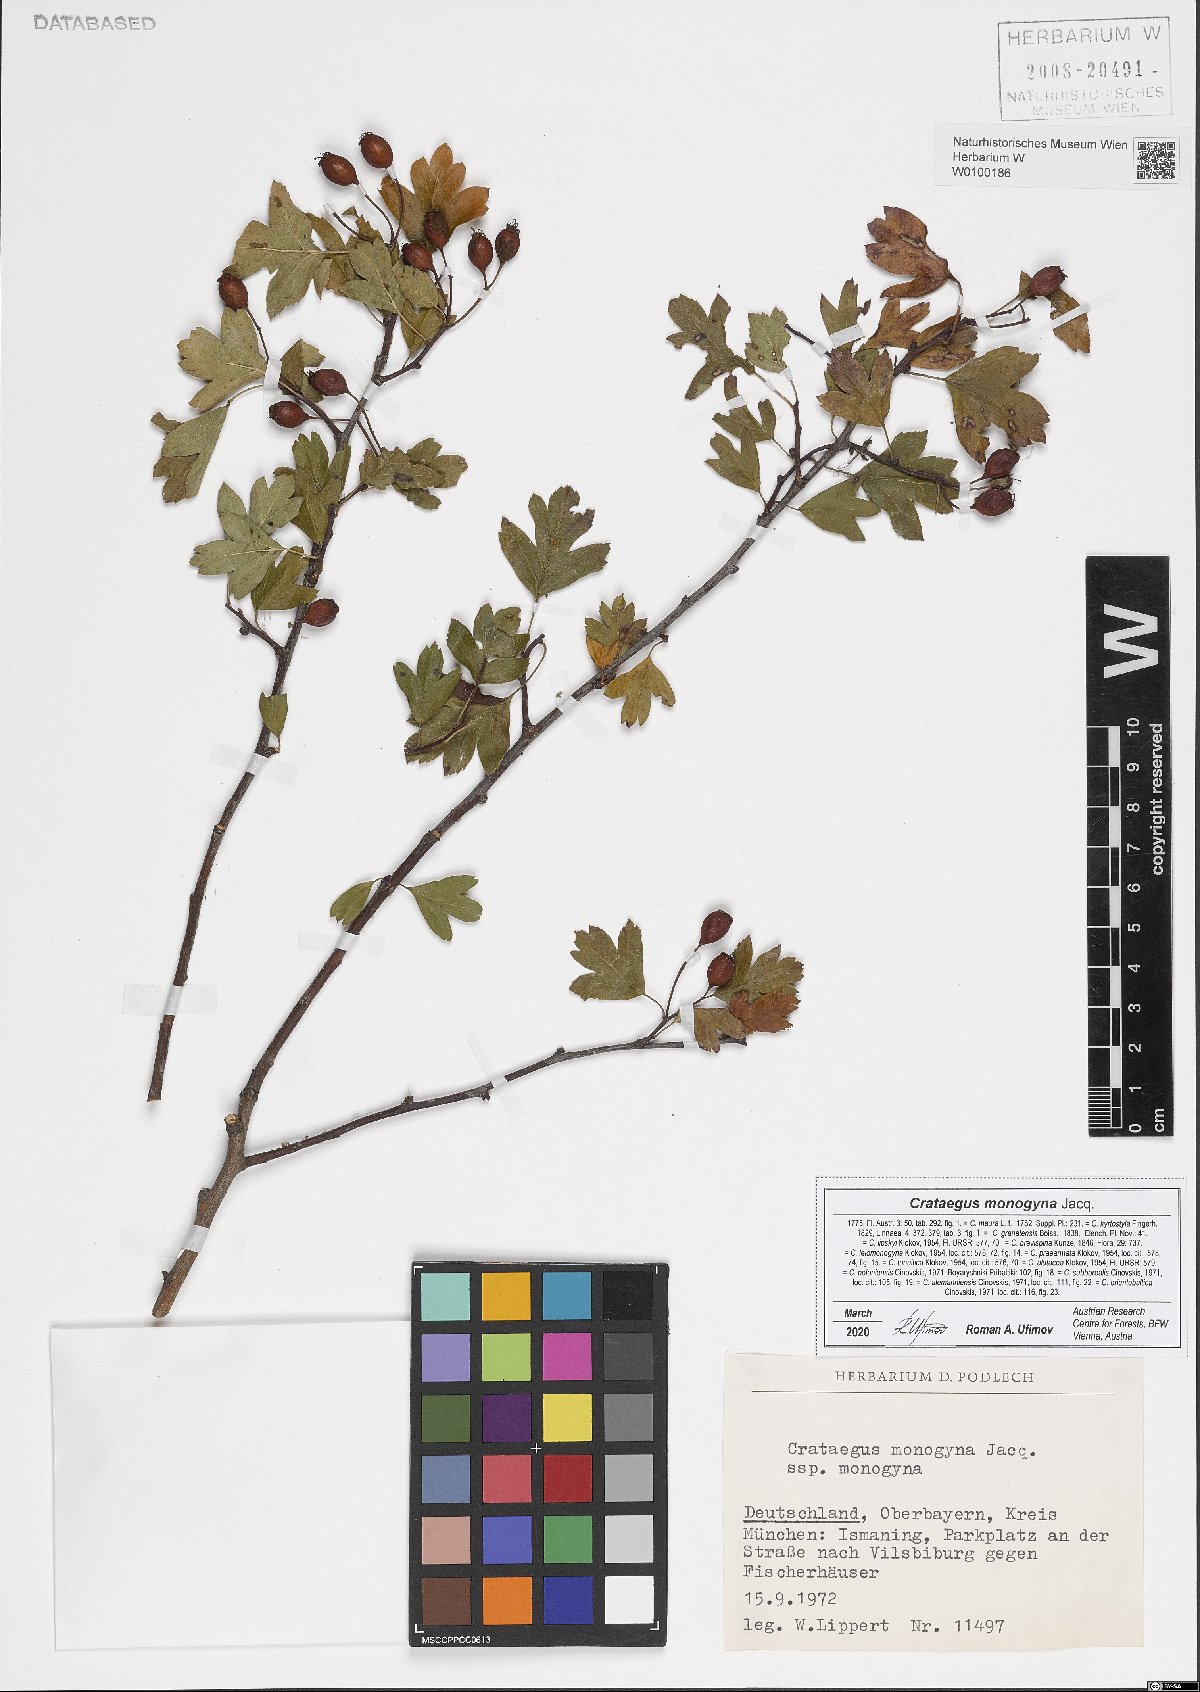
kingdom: Plantae
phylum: Tracheophyta
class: Magnoliopsida
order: Rosales
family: Rosaceae
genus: Crataegus
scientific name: Crataegus monogyna
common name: Hawthorn
